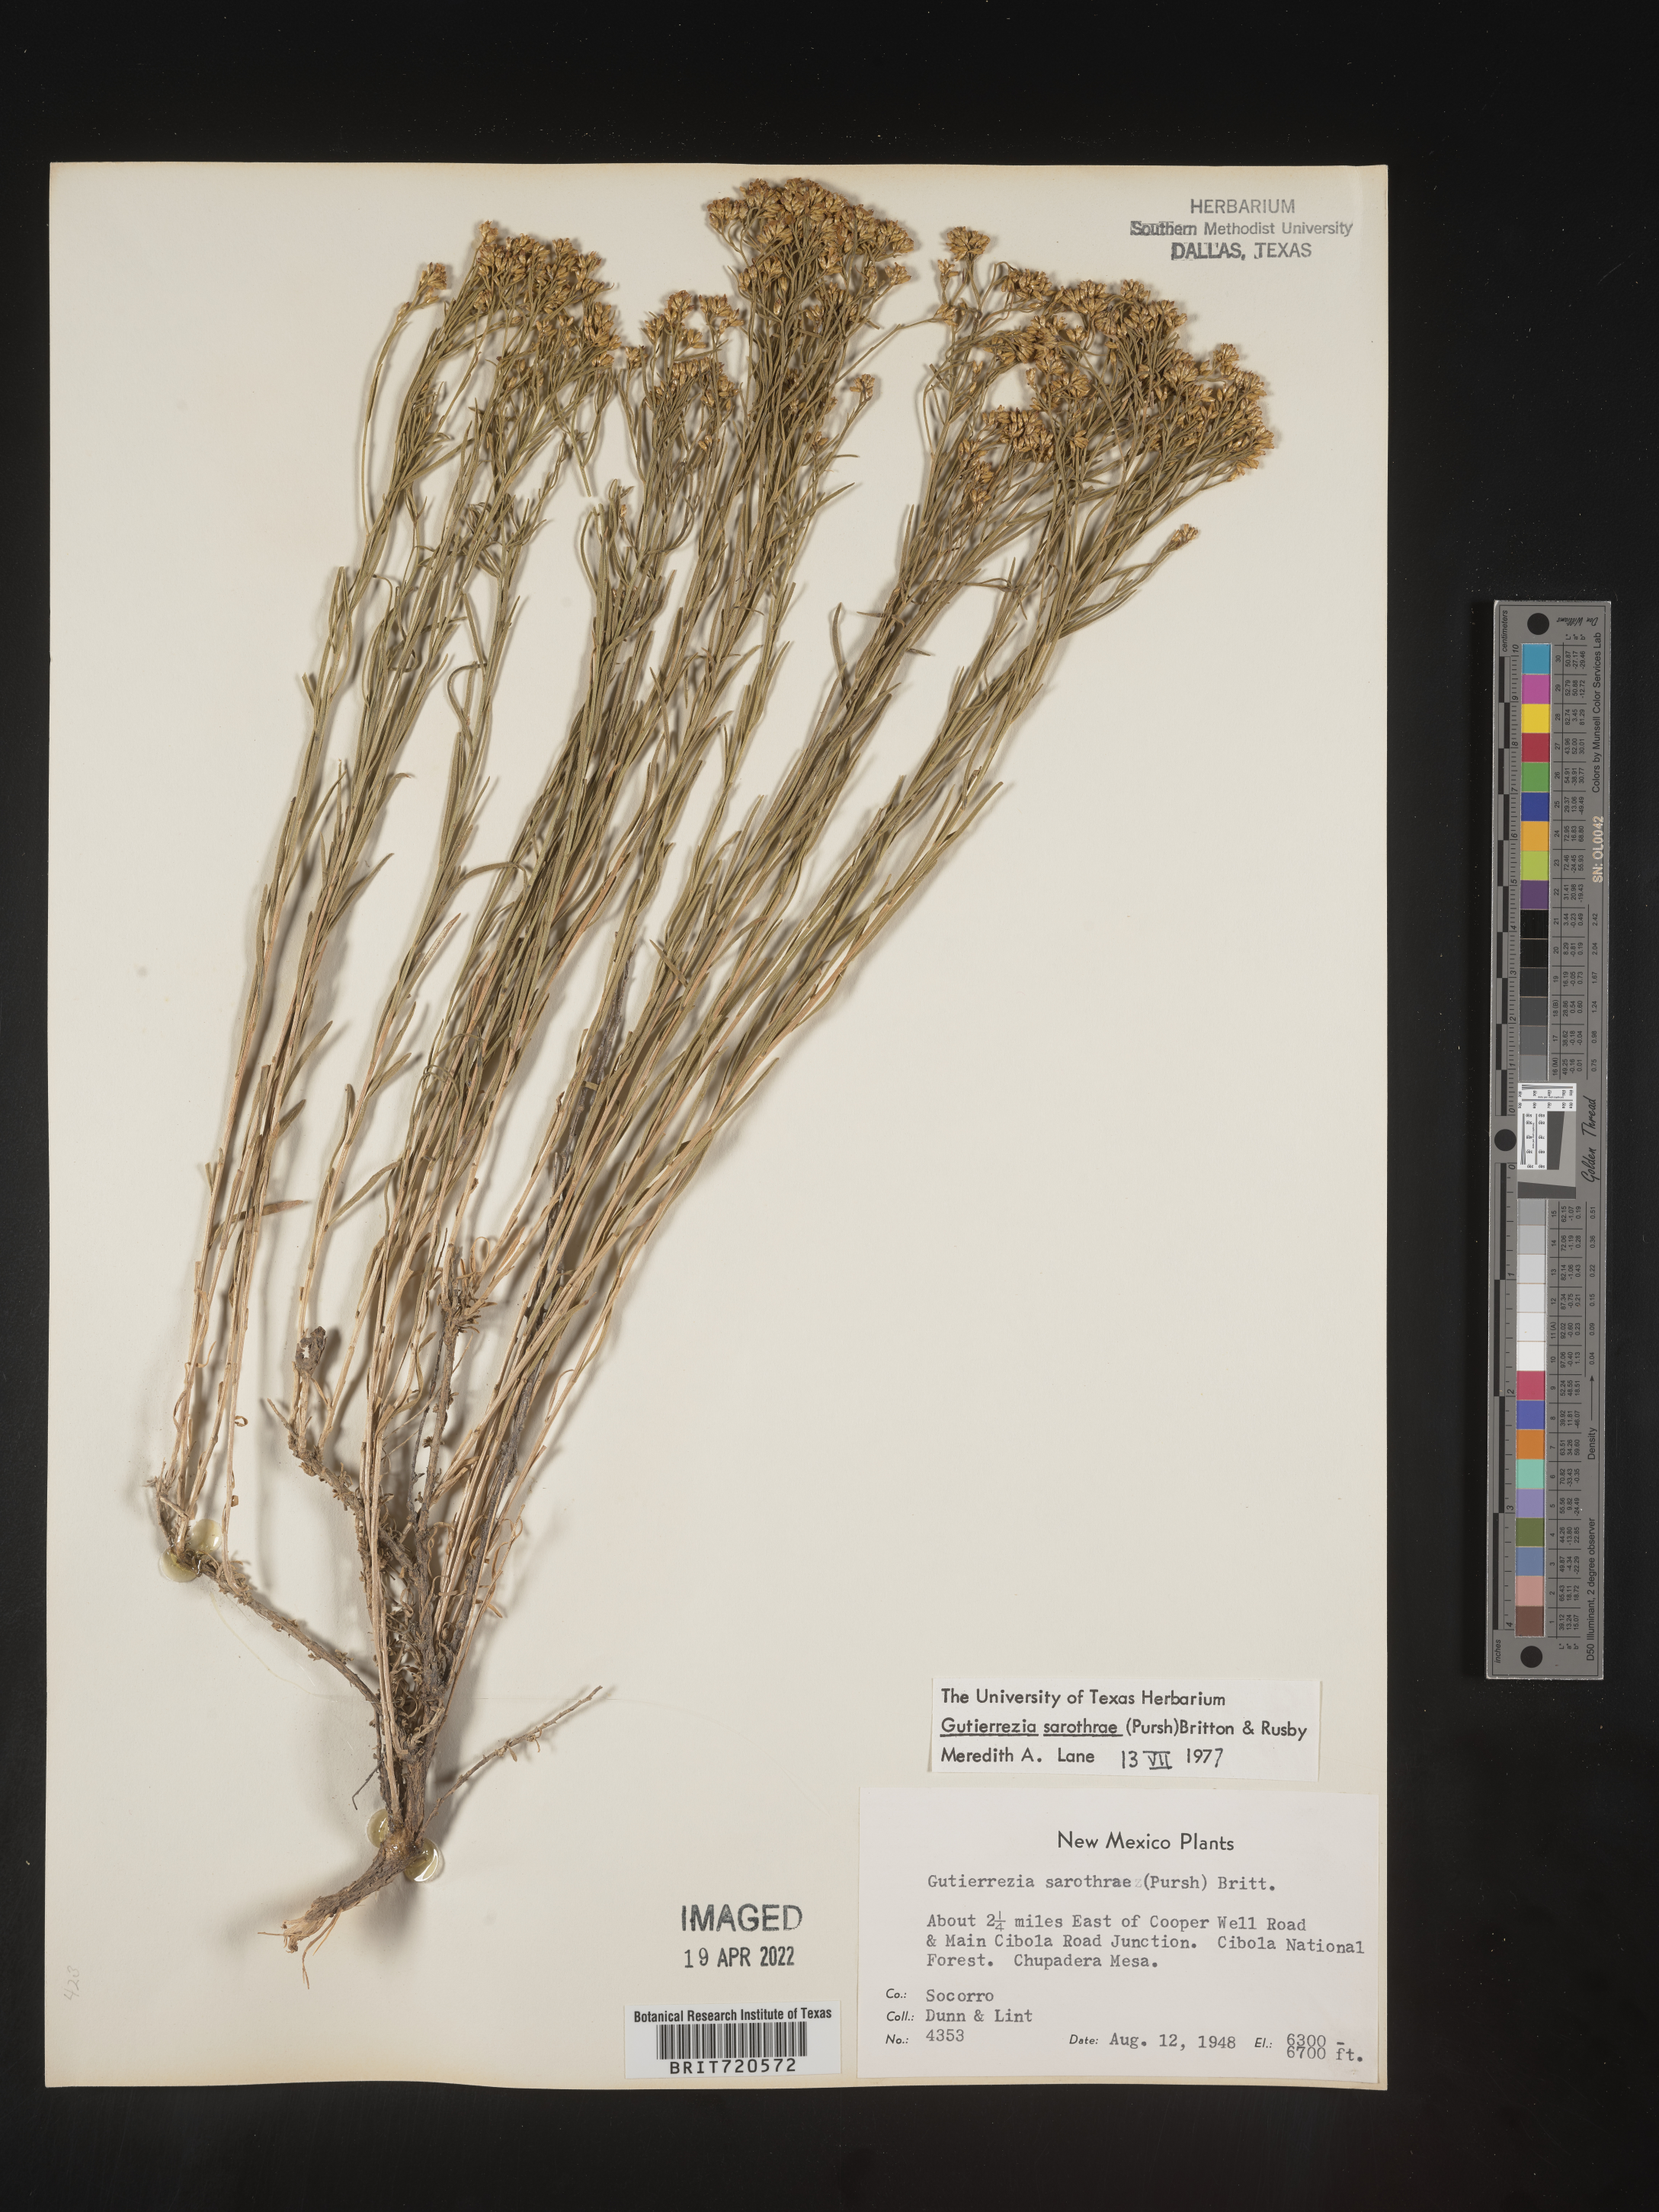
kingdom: Plantae
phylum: Tracheophyta
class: Magnoliopsida
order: Asterales
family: Asteraceae
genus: Gutierrezia
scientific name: Gutierrezia sarothrae
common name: Broom snakeweed
